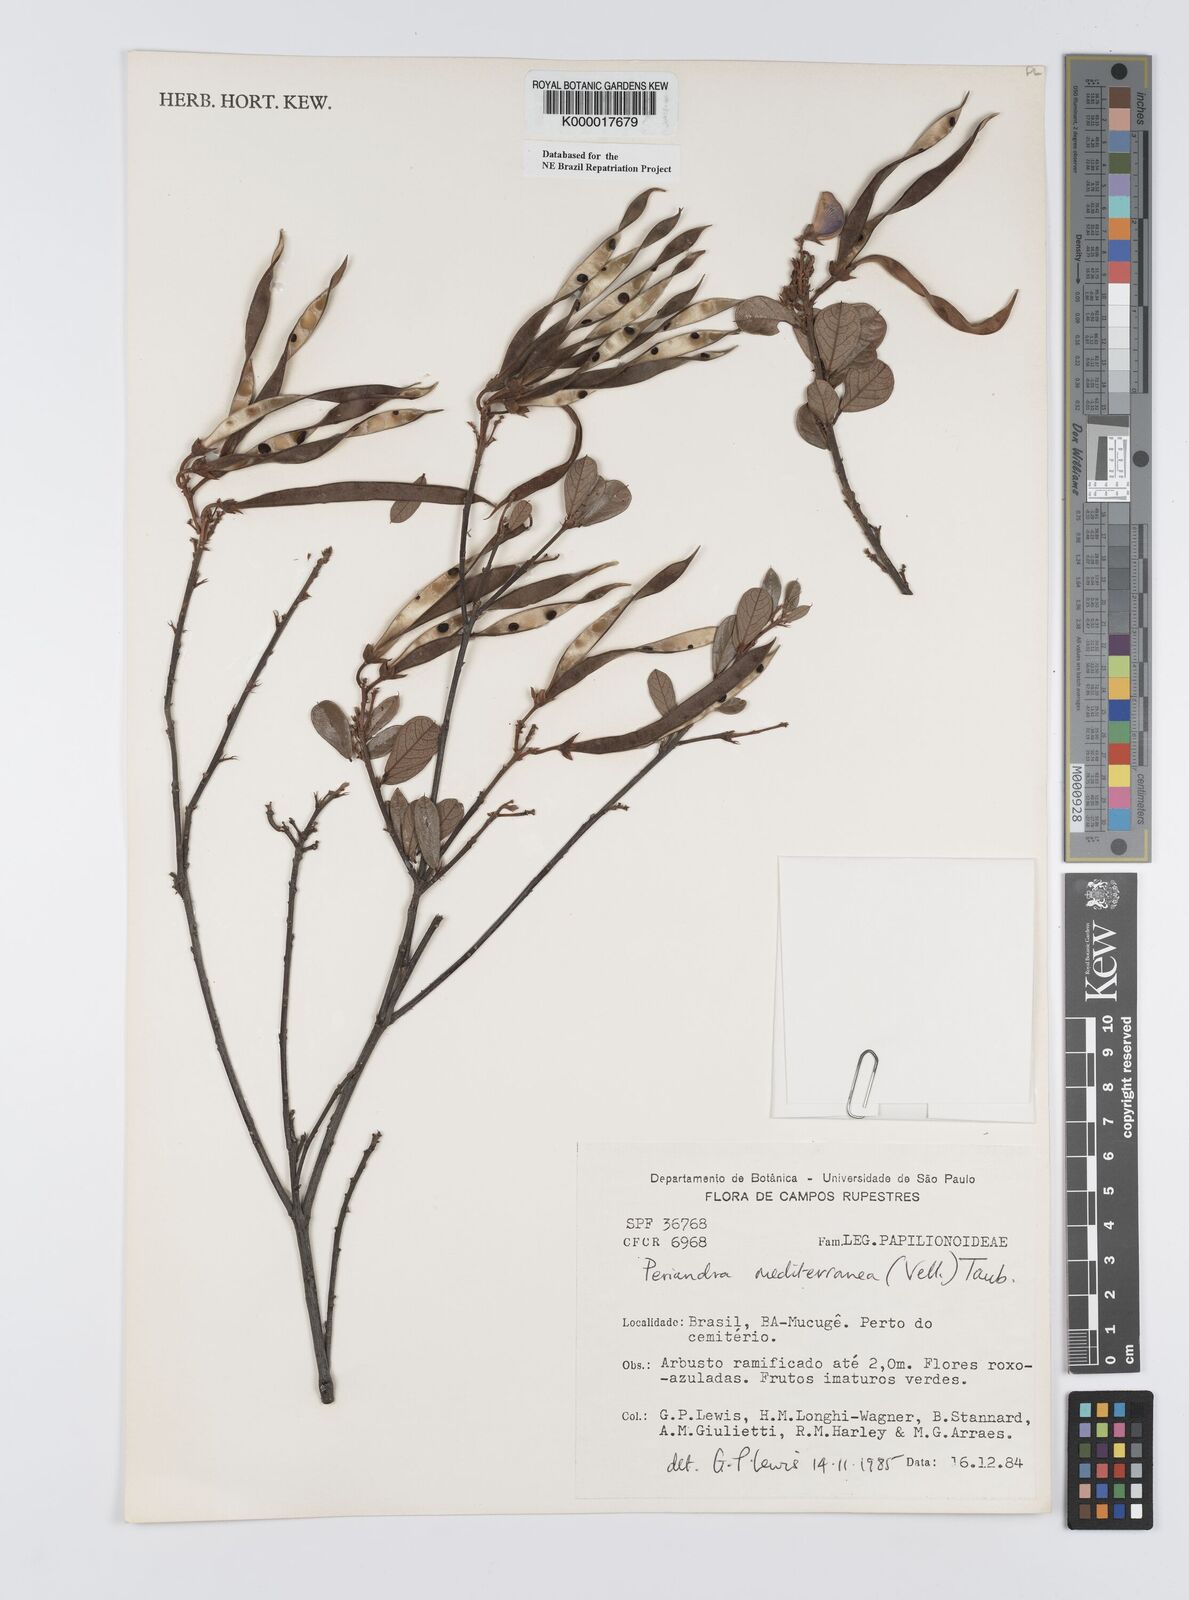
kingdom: Plantae
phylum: Tracheophyta
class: Magnoliopsida
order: Fabales
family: Fabaceae
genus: Periandra
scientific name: Periandra mediterranea
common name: Brazilian licorice
